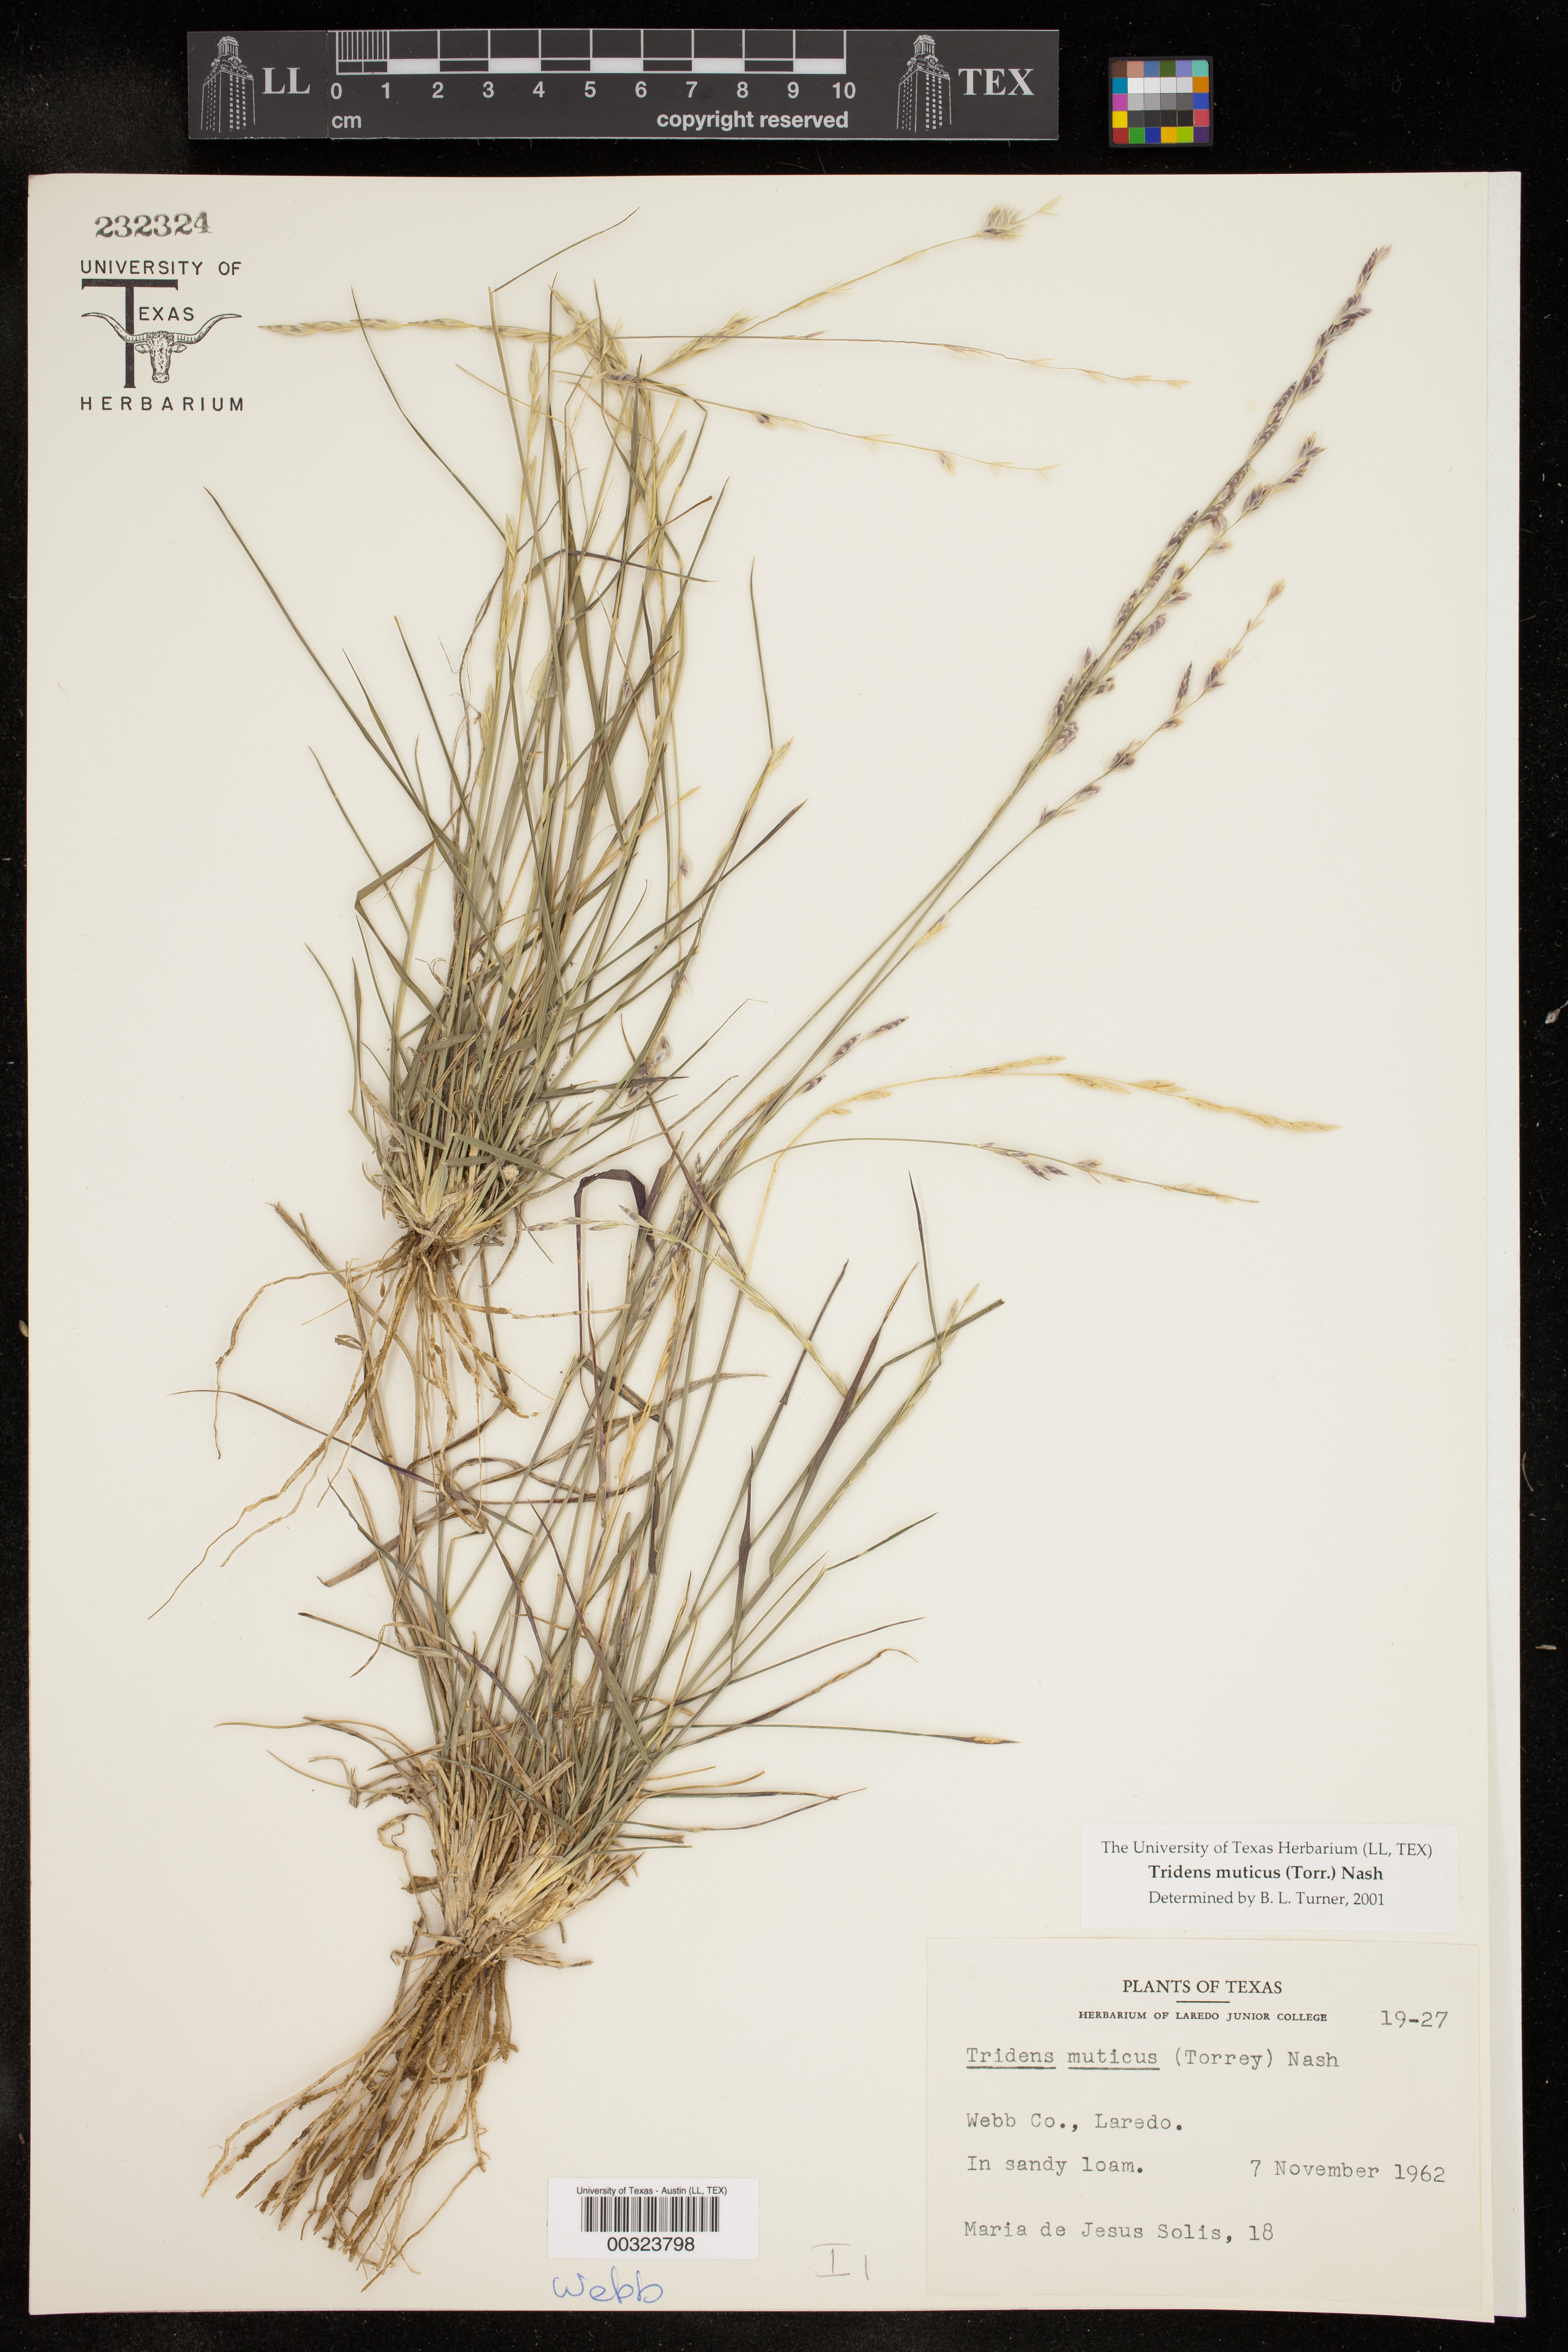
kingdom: Plantae
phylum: Tracheophyta
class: Liliopsida
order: Poales
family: Poaceae
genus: Tridentopsis
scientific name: Tridentopsis mutica
